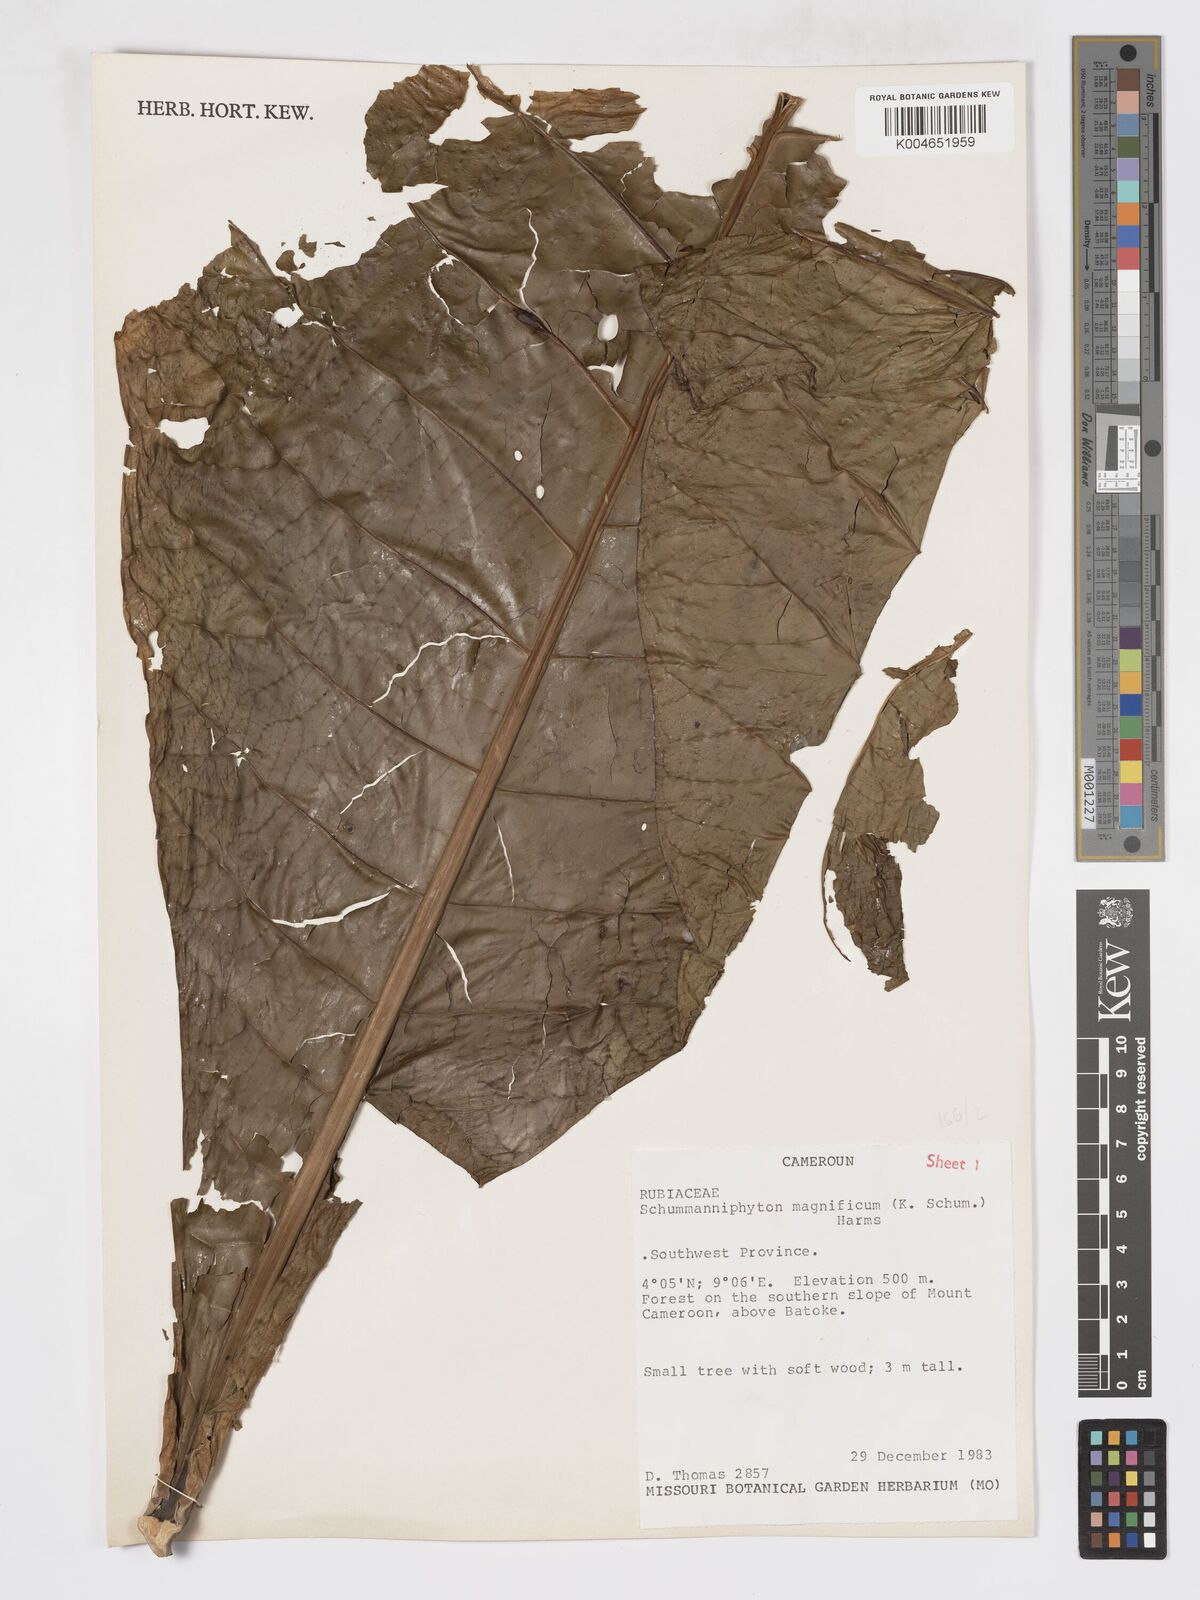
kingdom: Plantae
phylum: Tracheophyta
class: Magnoliopsida
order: Gentianales
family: Rubiaceae
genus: Schumanniophyton
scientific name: Schumanniophyton magnificum
